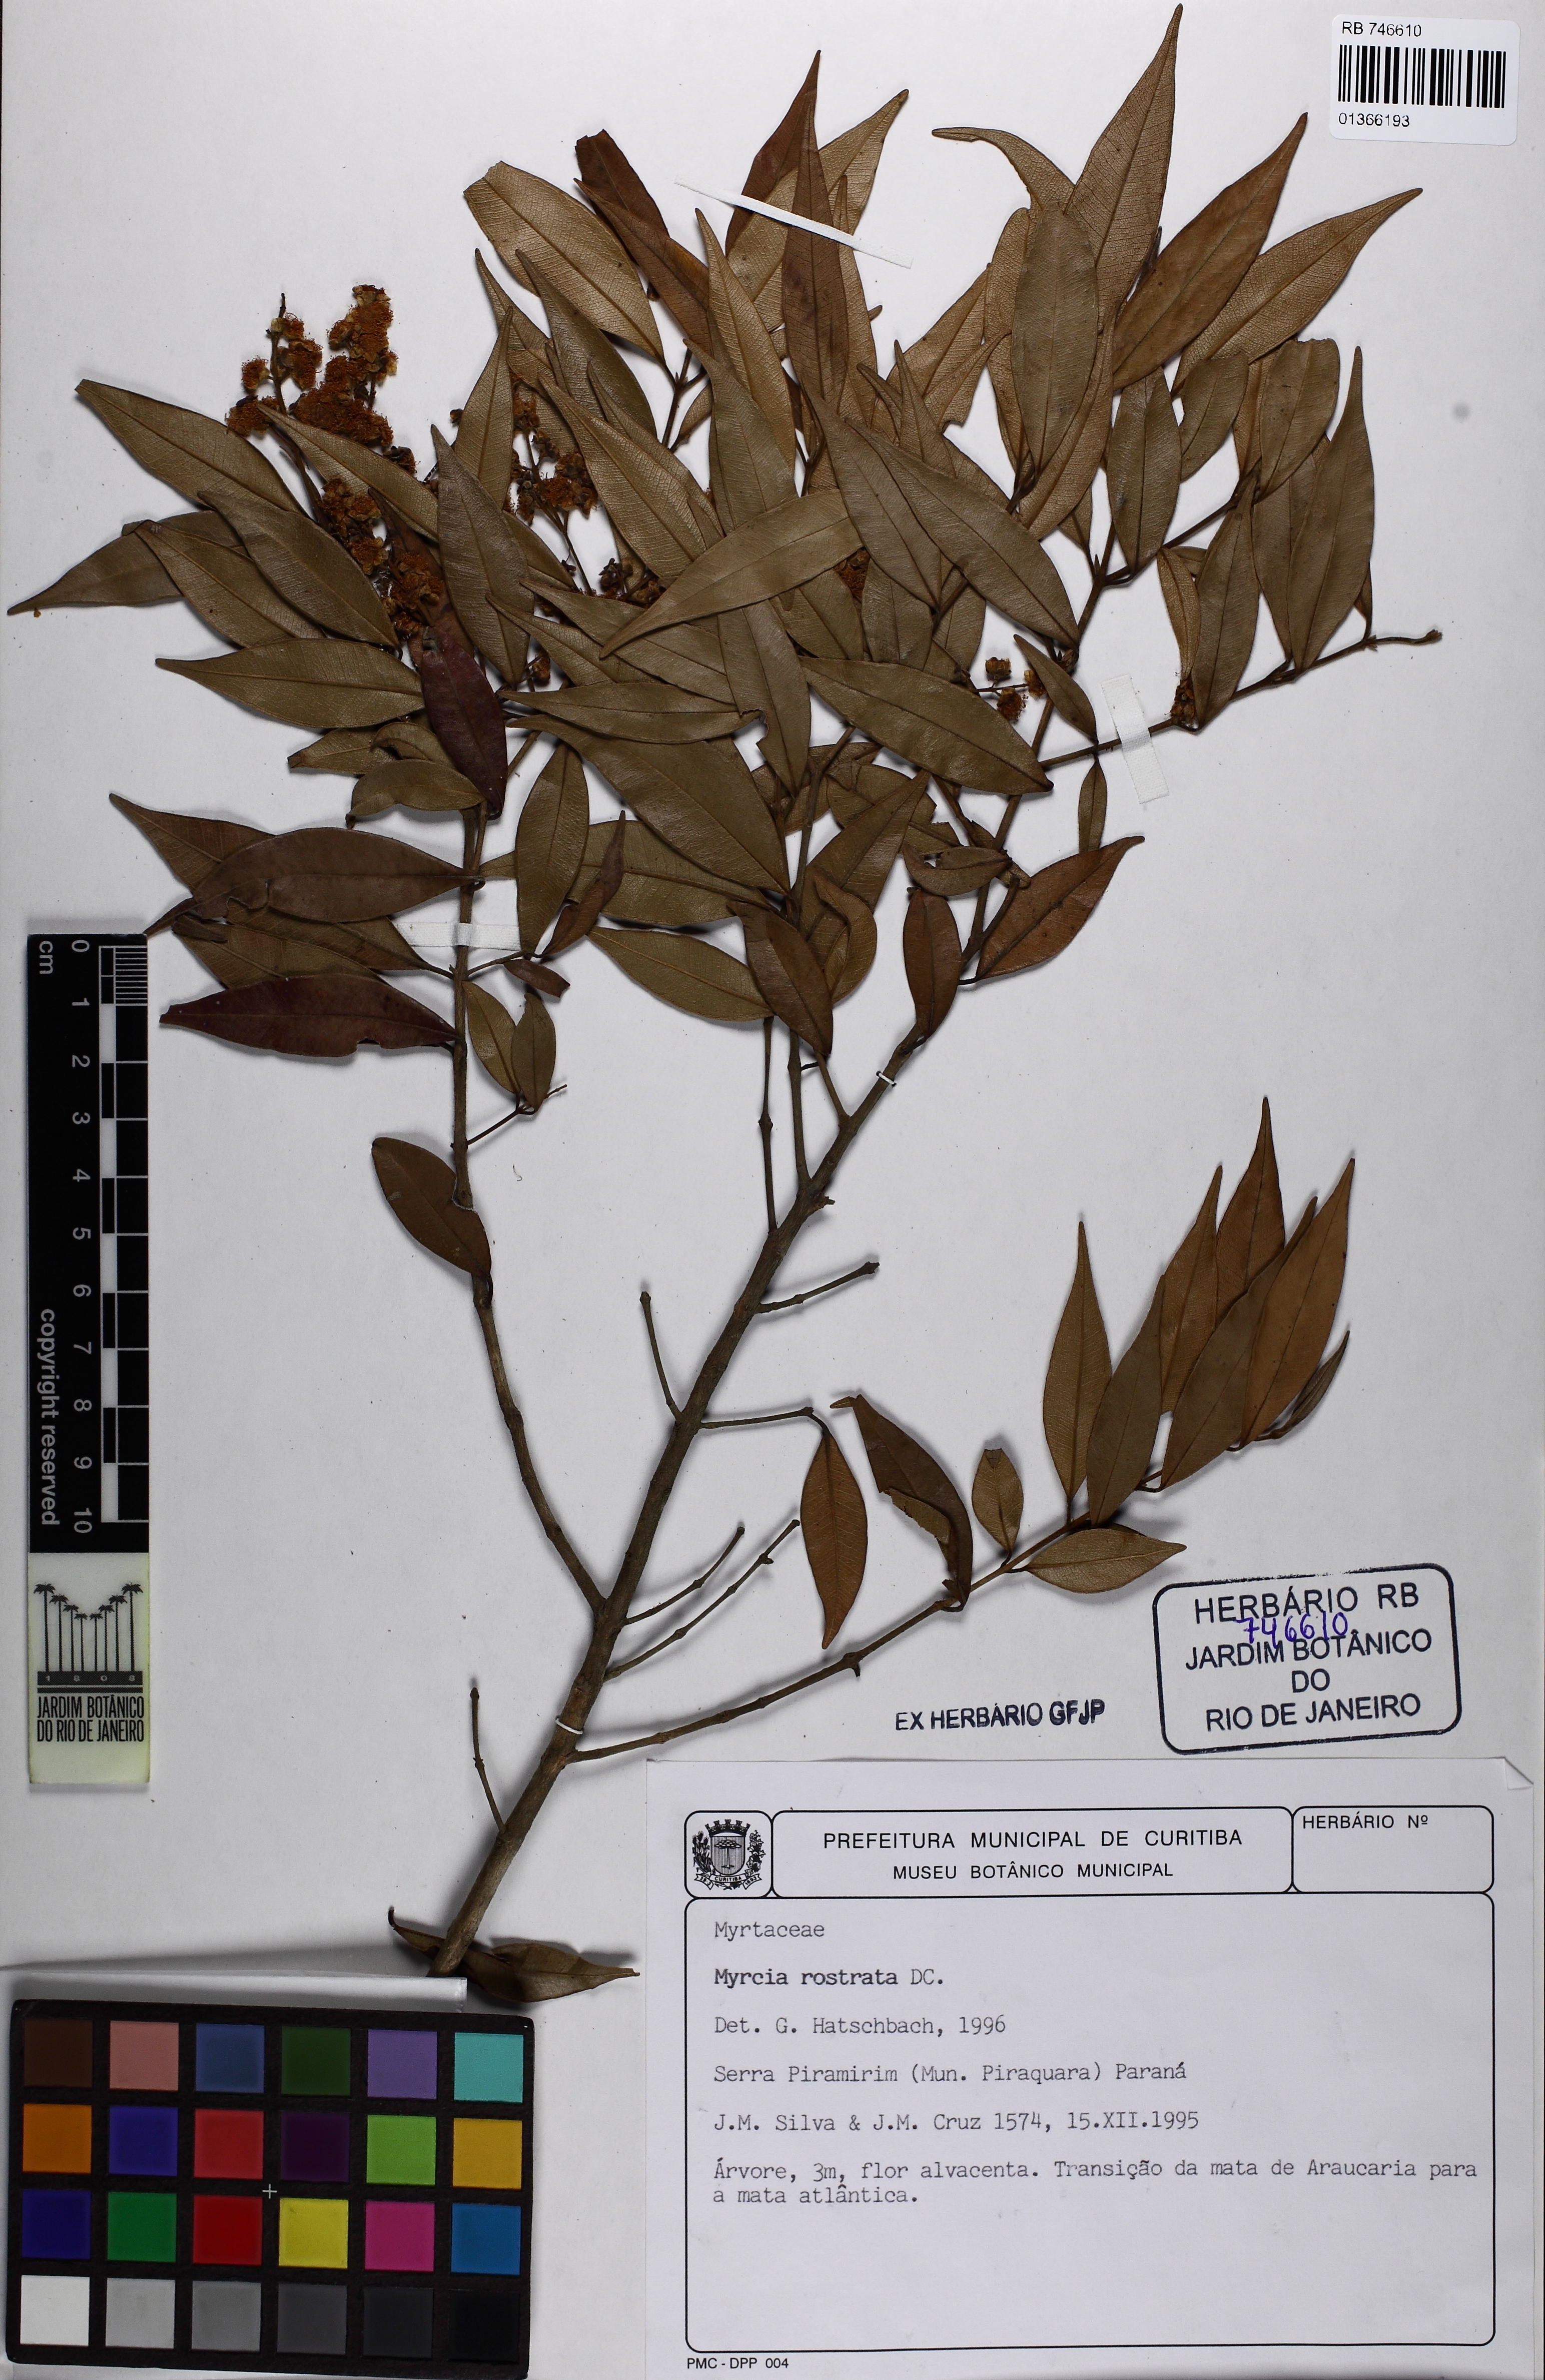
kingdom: Plantae
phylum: Tracheophyta
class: Magnoliopsida
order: Myrtales
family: Myrtaceae
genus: Myrcia
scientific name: Myrcia splendens
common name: Surinam cherry
